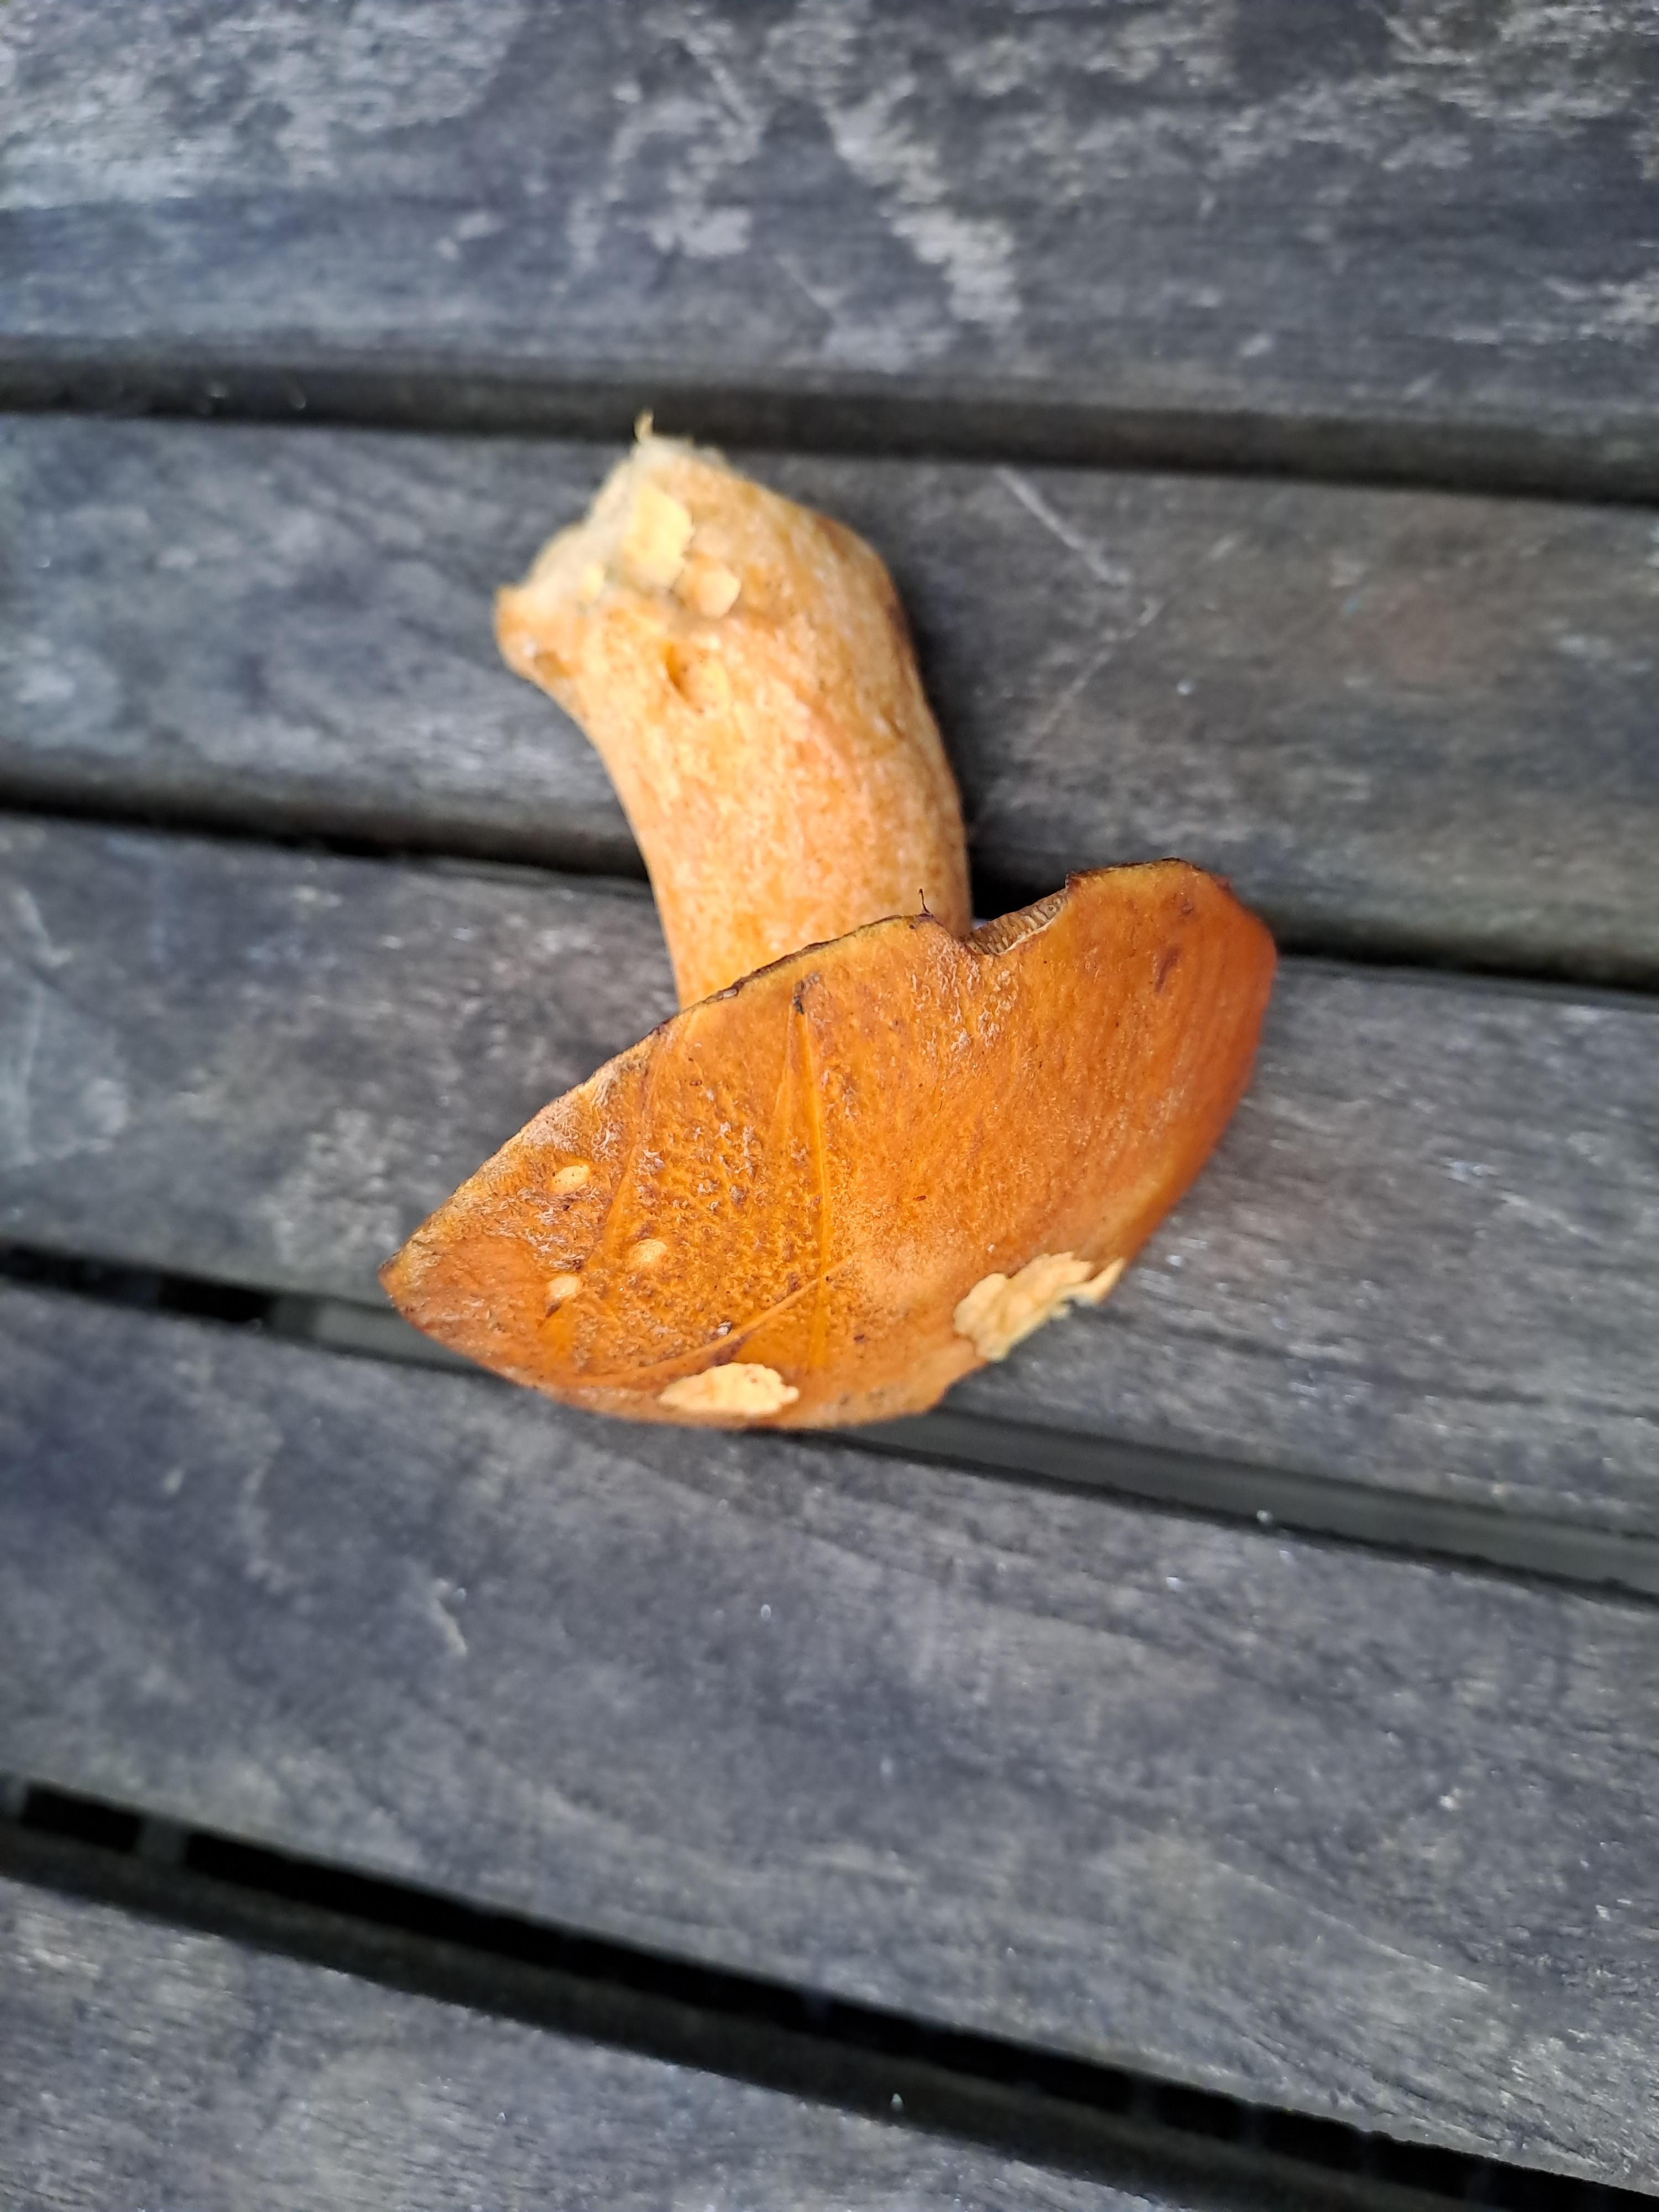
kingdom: Fungi
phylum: Basidiomycota
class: Agaricomycetes
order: Boletales
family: Suillaceae
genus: Suillus
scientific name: Suillus variegatus
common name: broget slimrørhat
